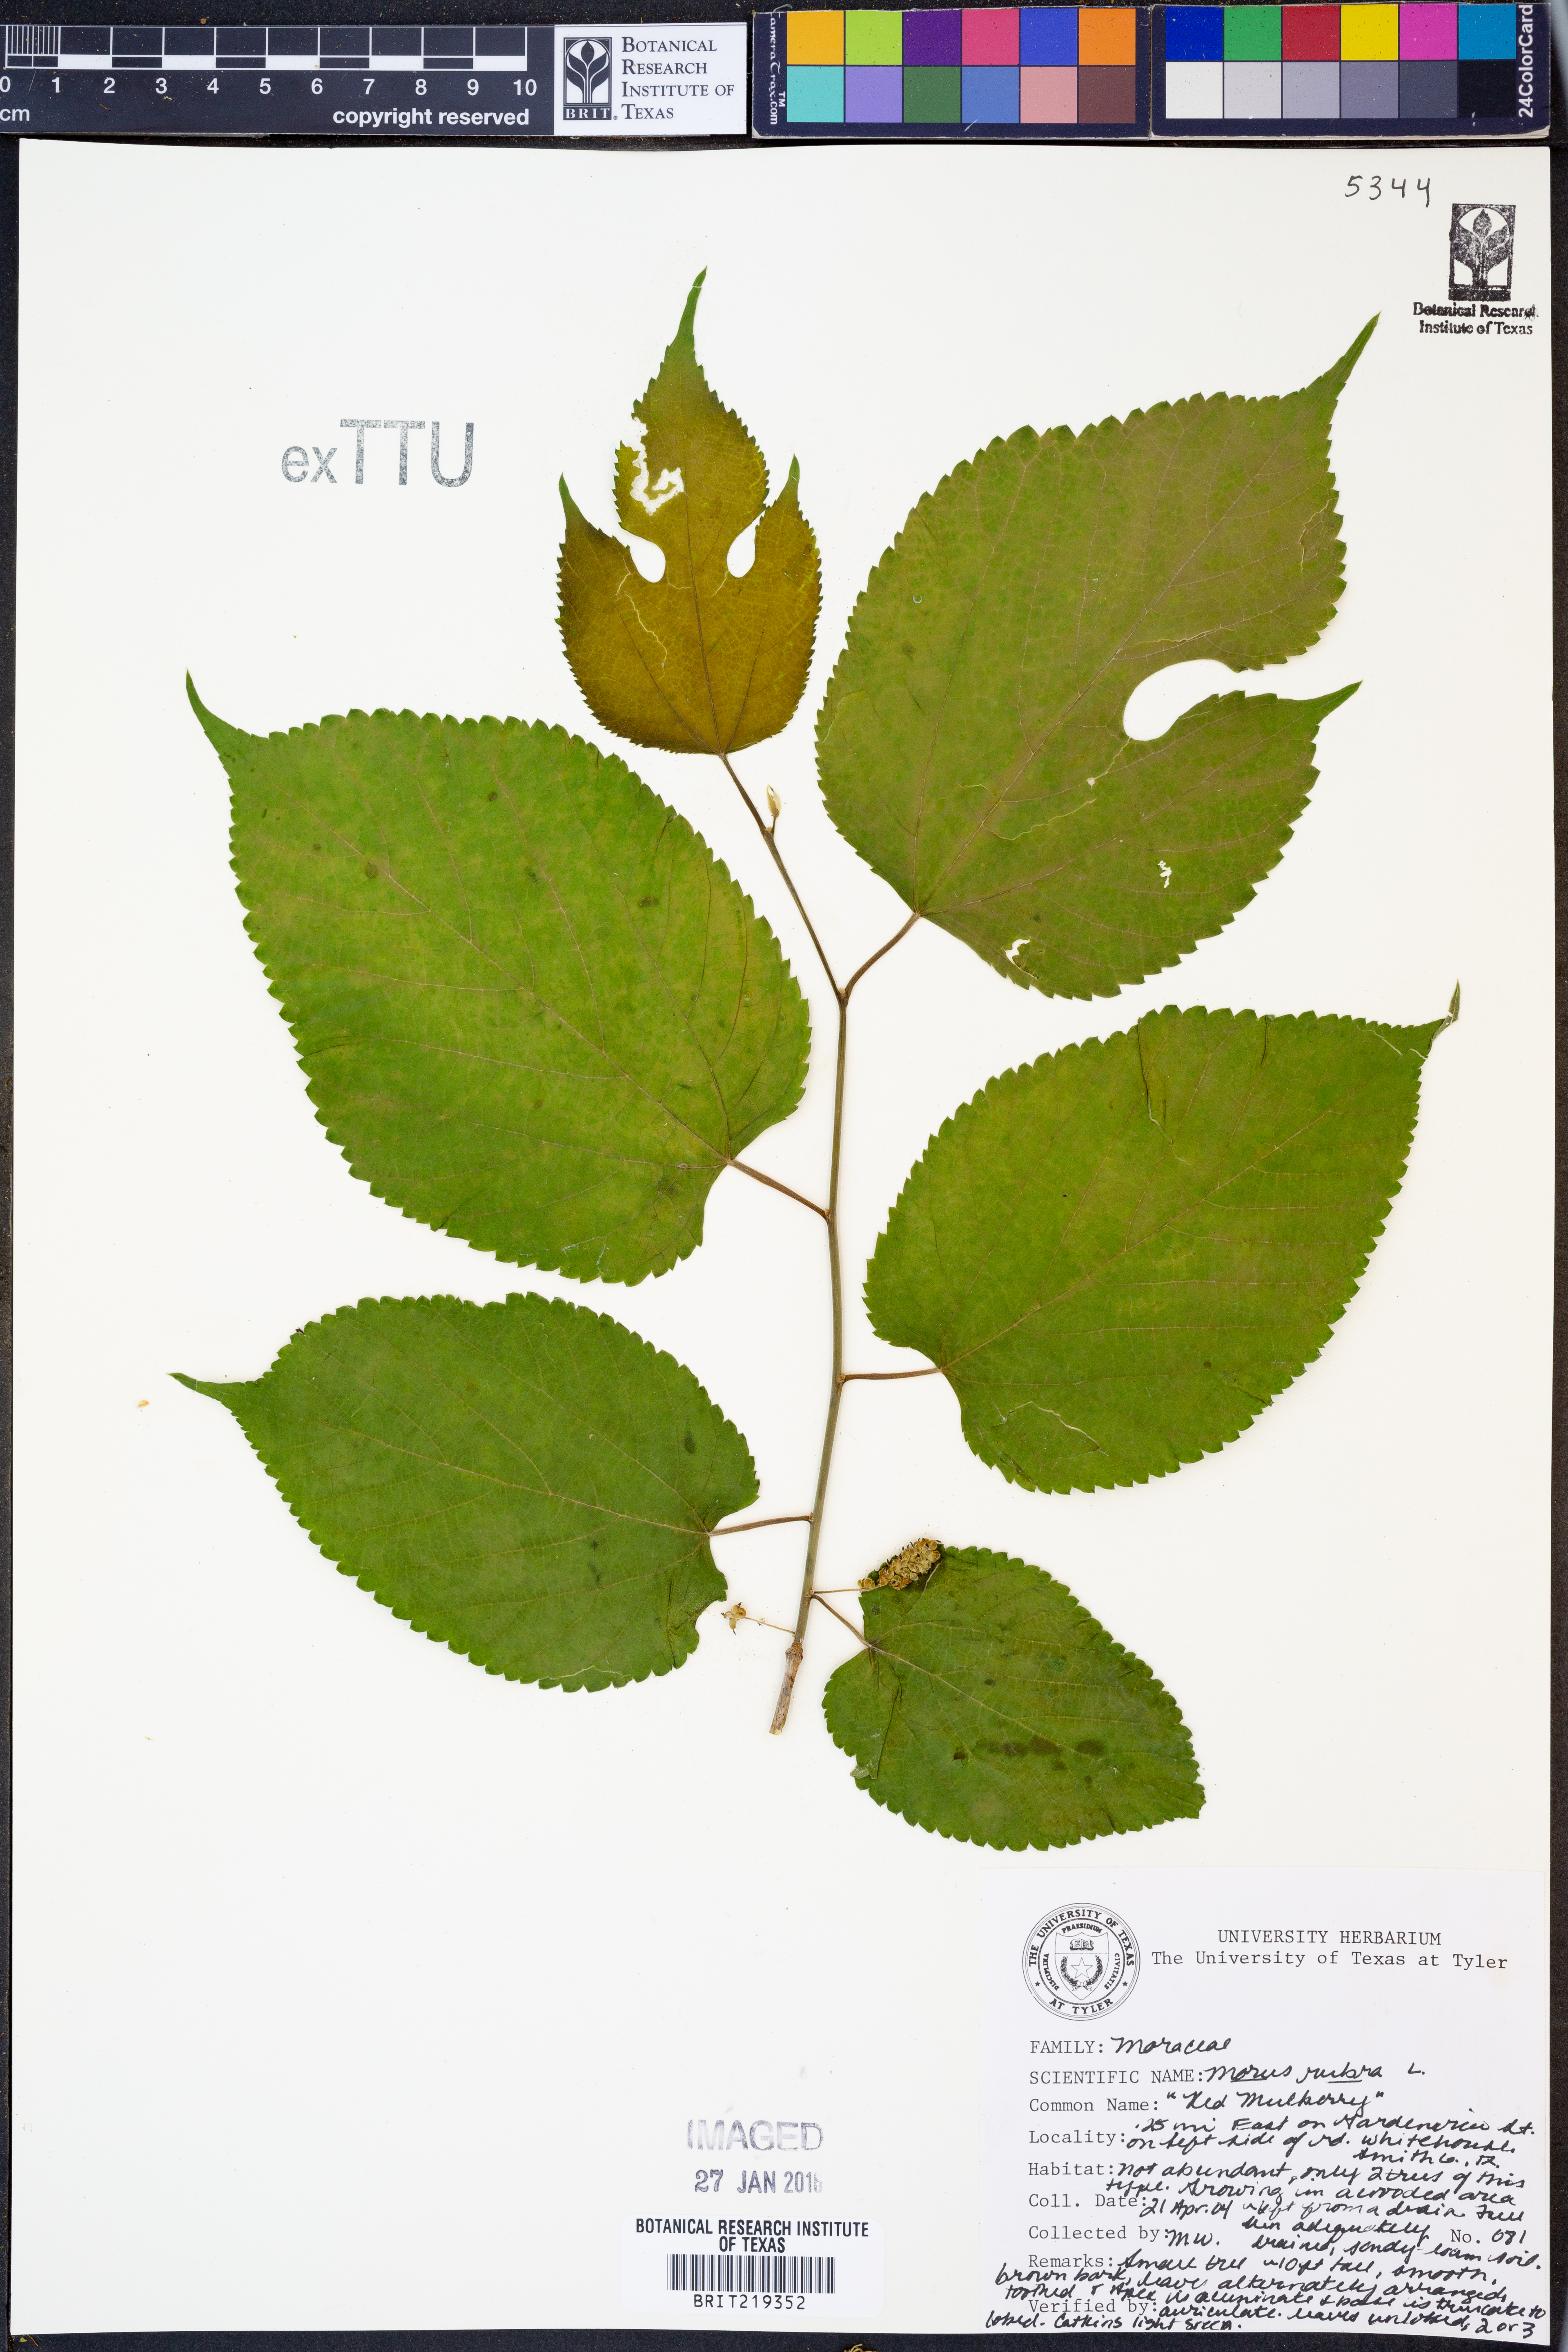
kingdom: Plantae
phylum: Tracheophyta
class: Magnoliopsida
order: Rosales
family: Moraceae
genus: Morus
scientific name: Morus rubra
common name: Red mulberry
